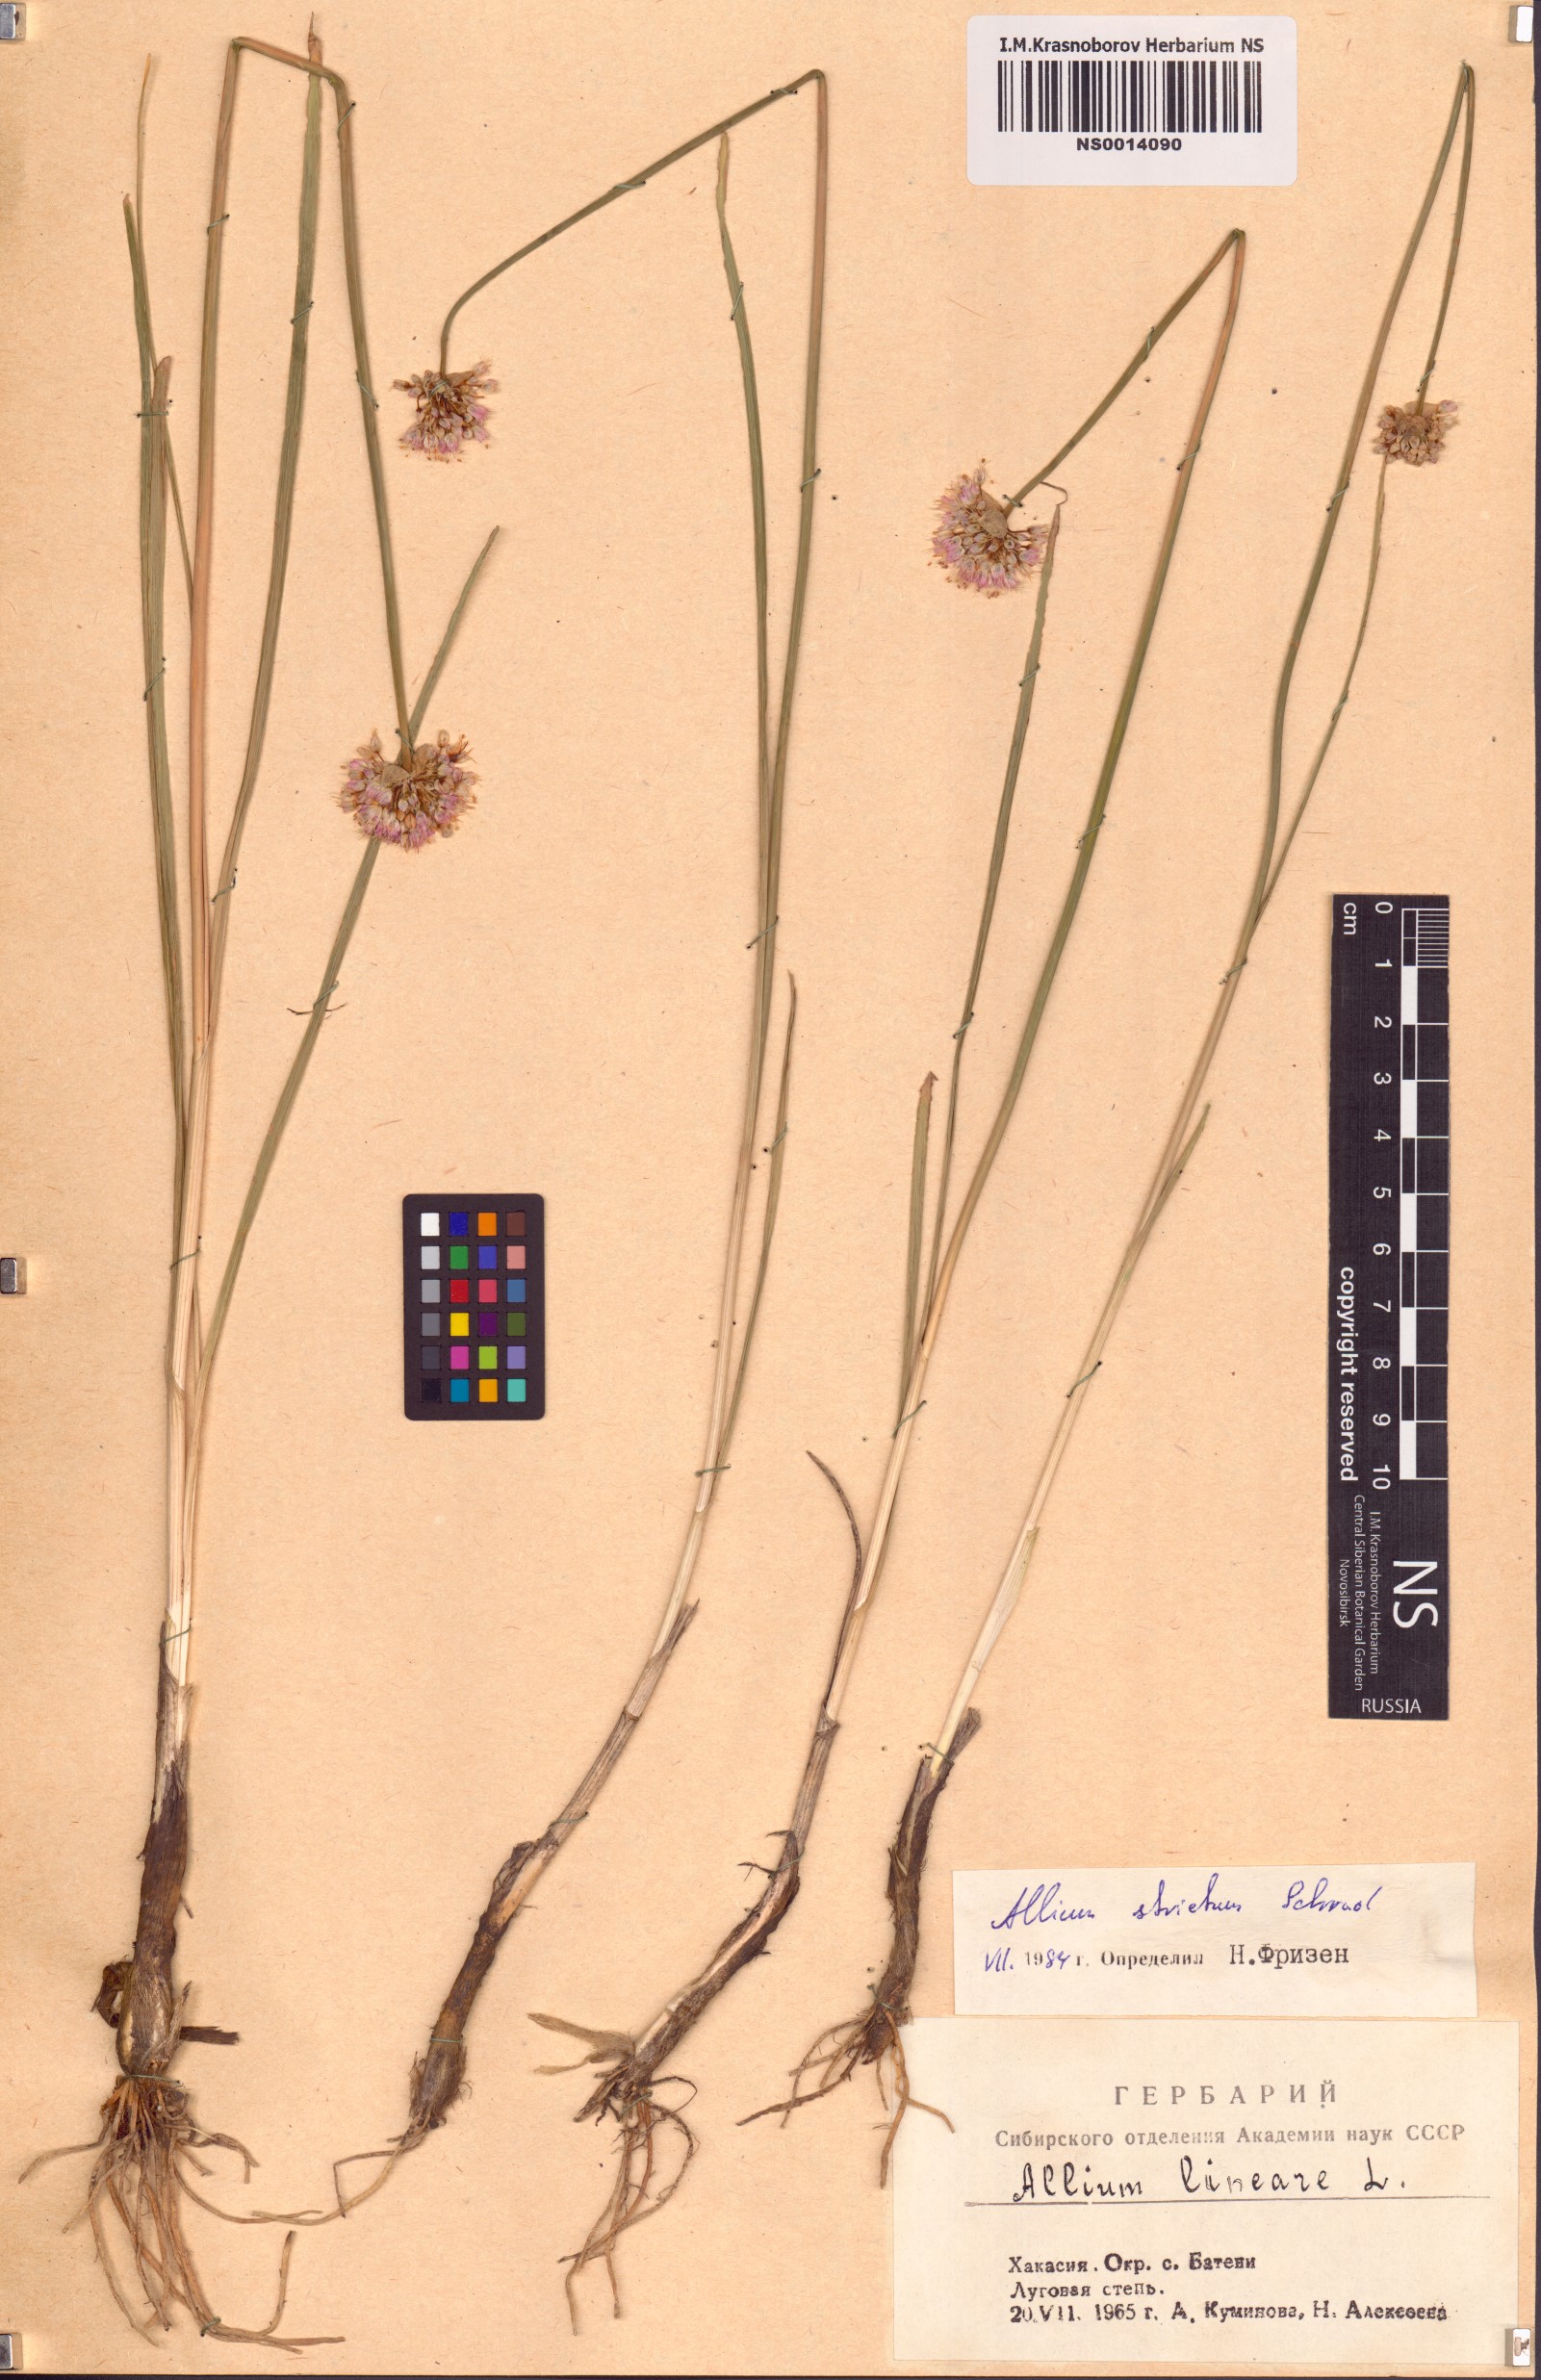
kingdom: Plantae
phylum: Tracheophyta
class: Liliopsida
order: Asparagales
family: Amaryllidaceae
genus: Allium
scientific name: Allium strictum
